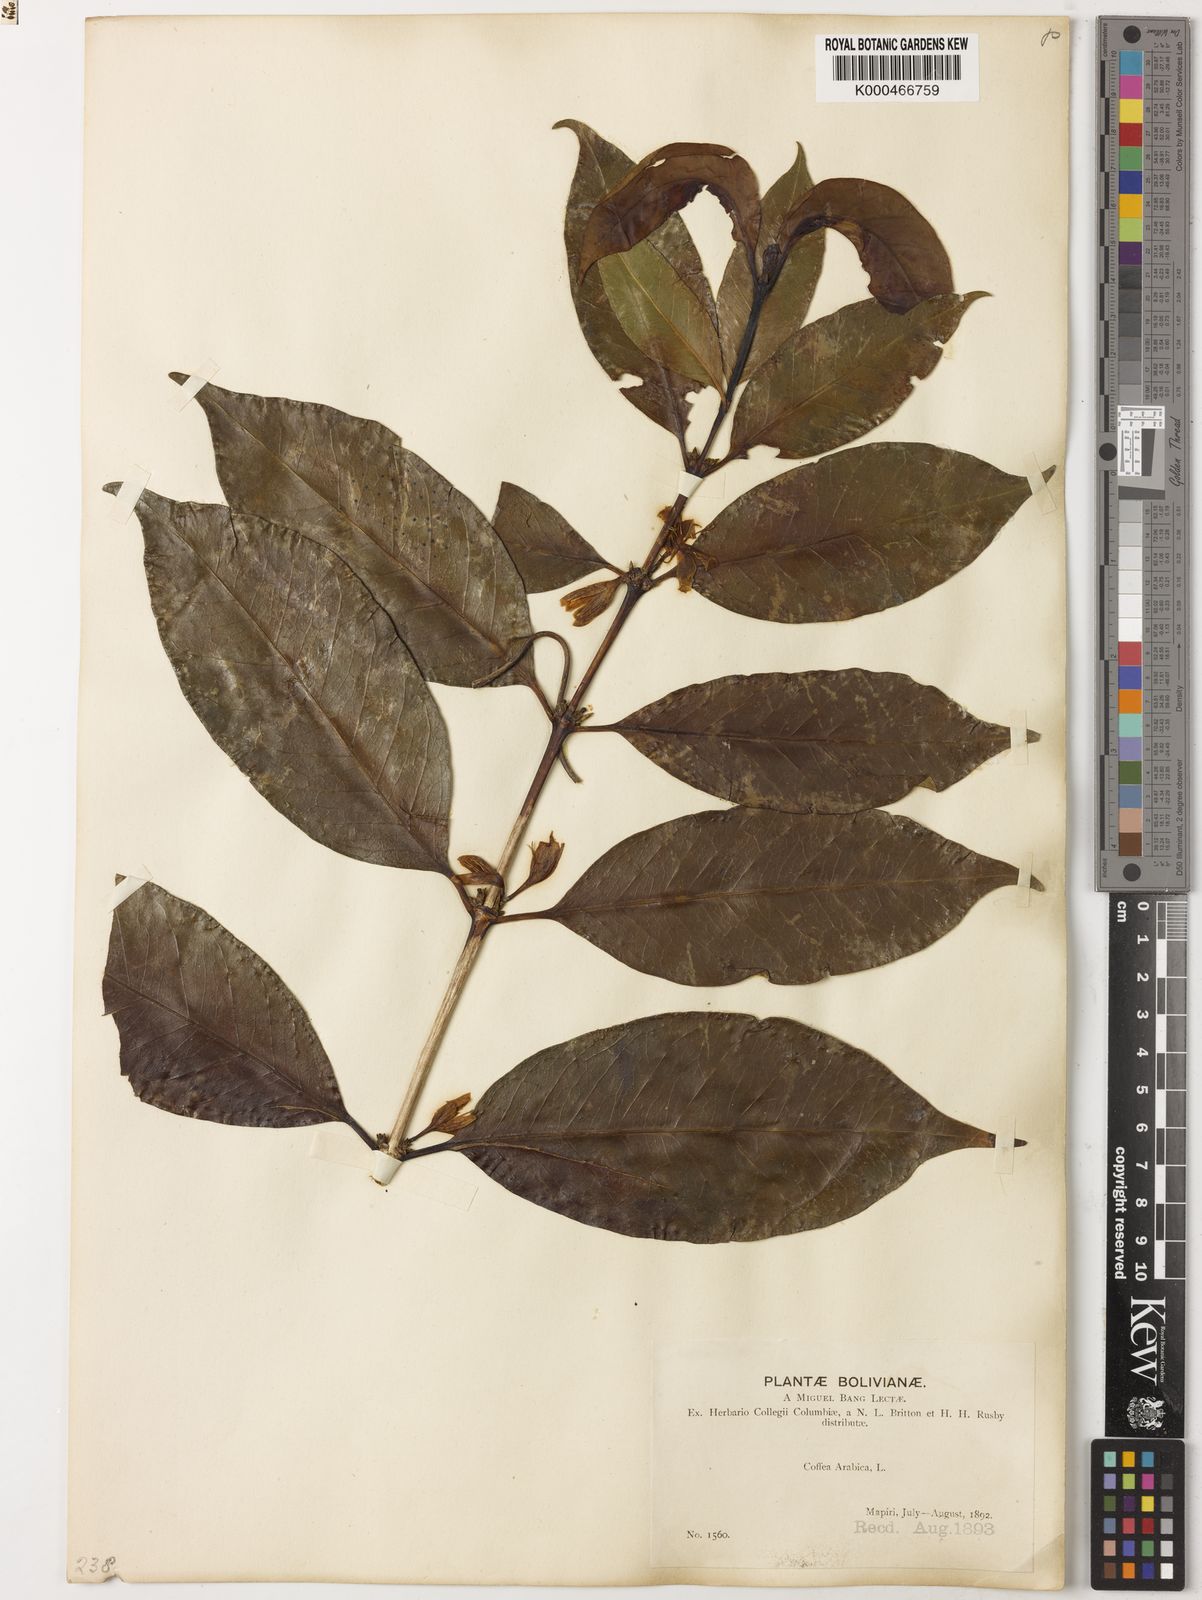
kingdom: Plantae
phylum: Tracheophyta
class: Magnoliopsida
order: Gentianales
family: Rubiaceae
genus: Coffea
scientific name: Coffea arabica
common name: Coffee
